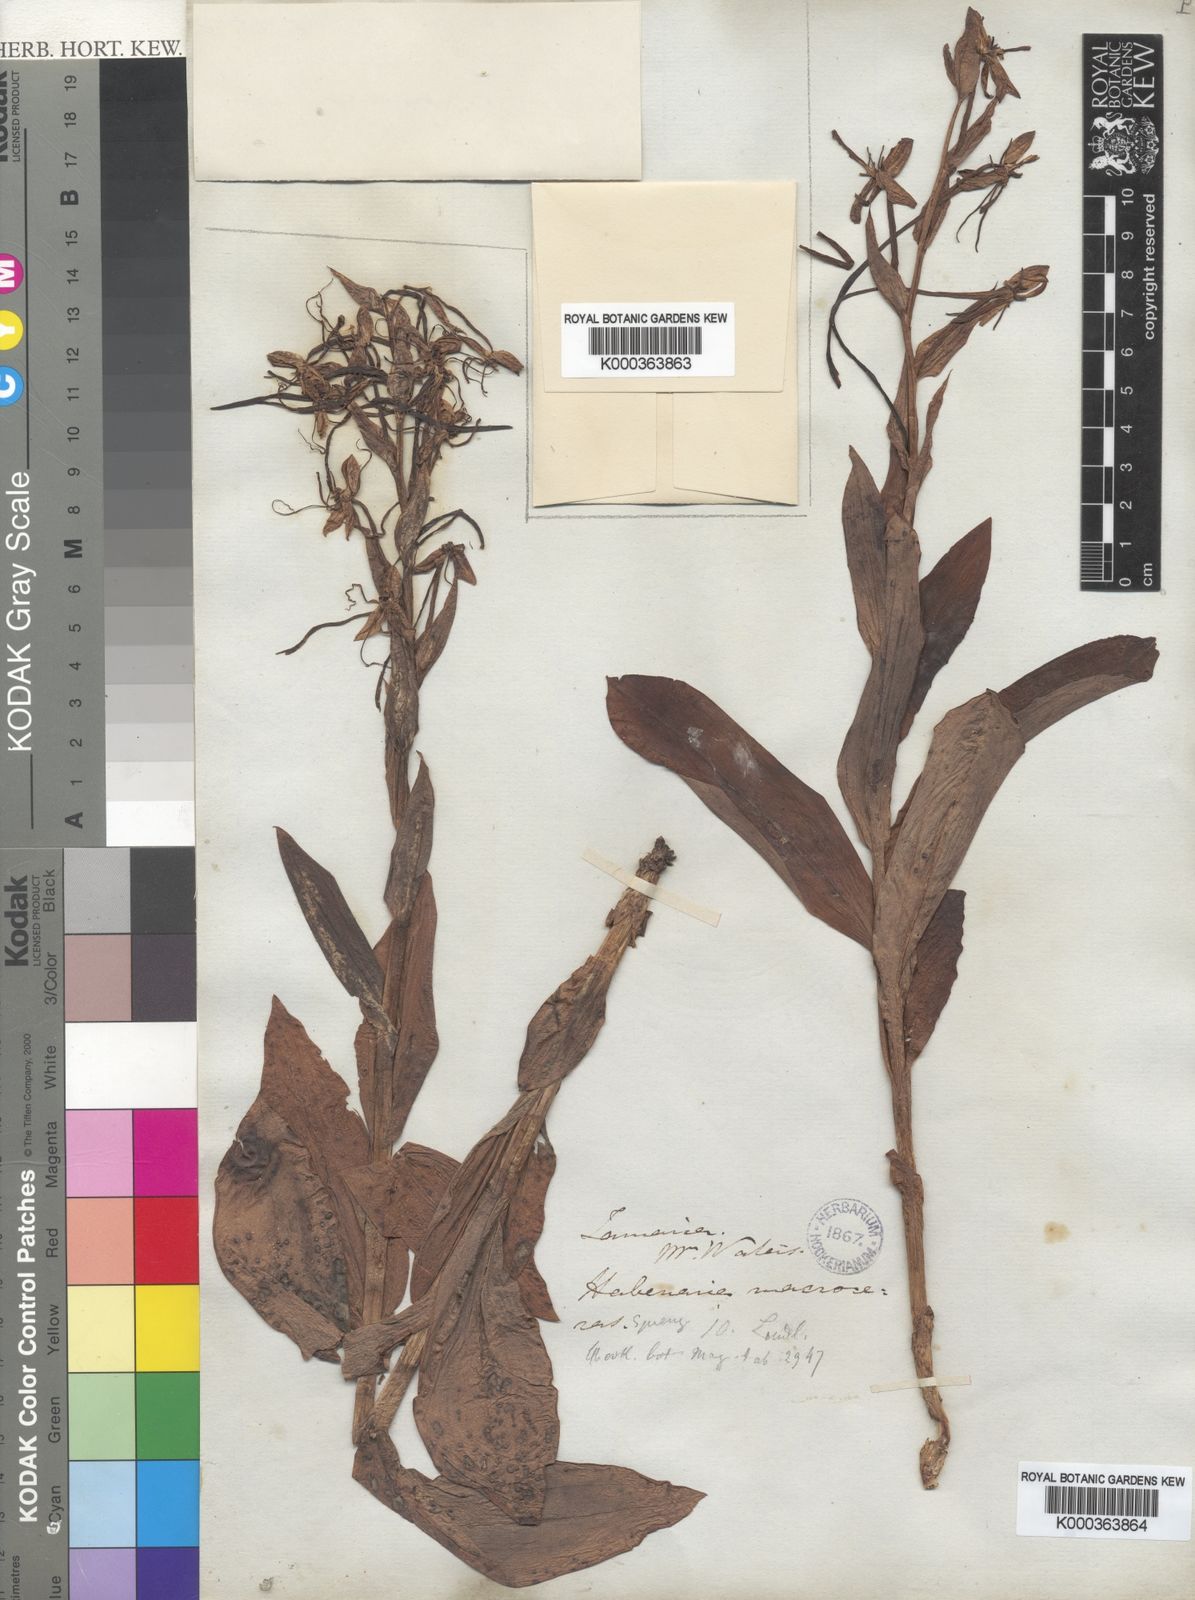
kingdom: Plantae
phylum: Tracheophyta
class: Liliopsida
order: Asparagales
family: Orchidaceae
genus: Habenaria
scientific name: Habenaria
